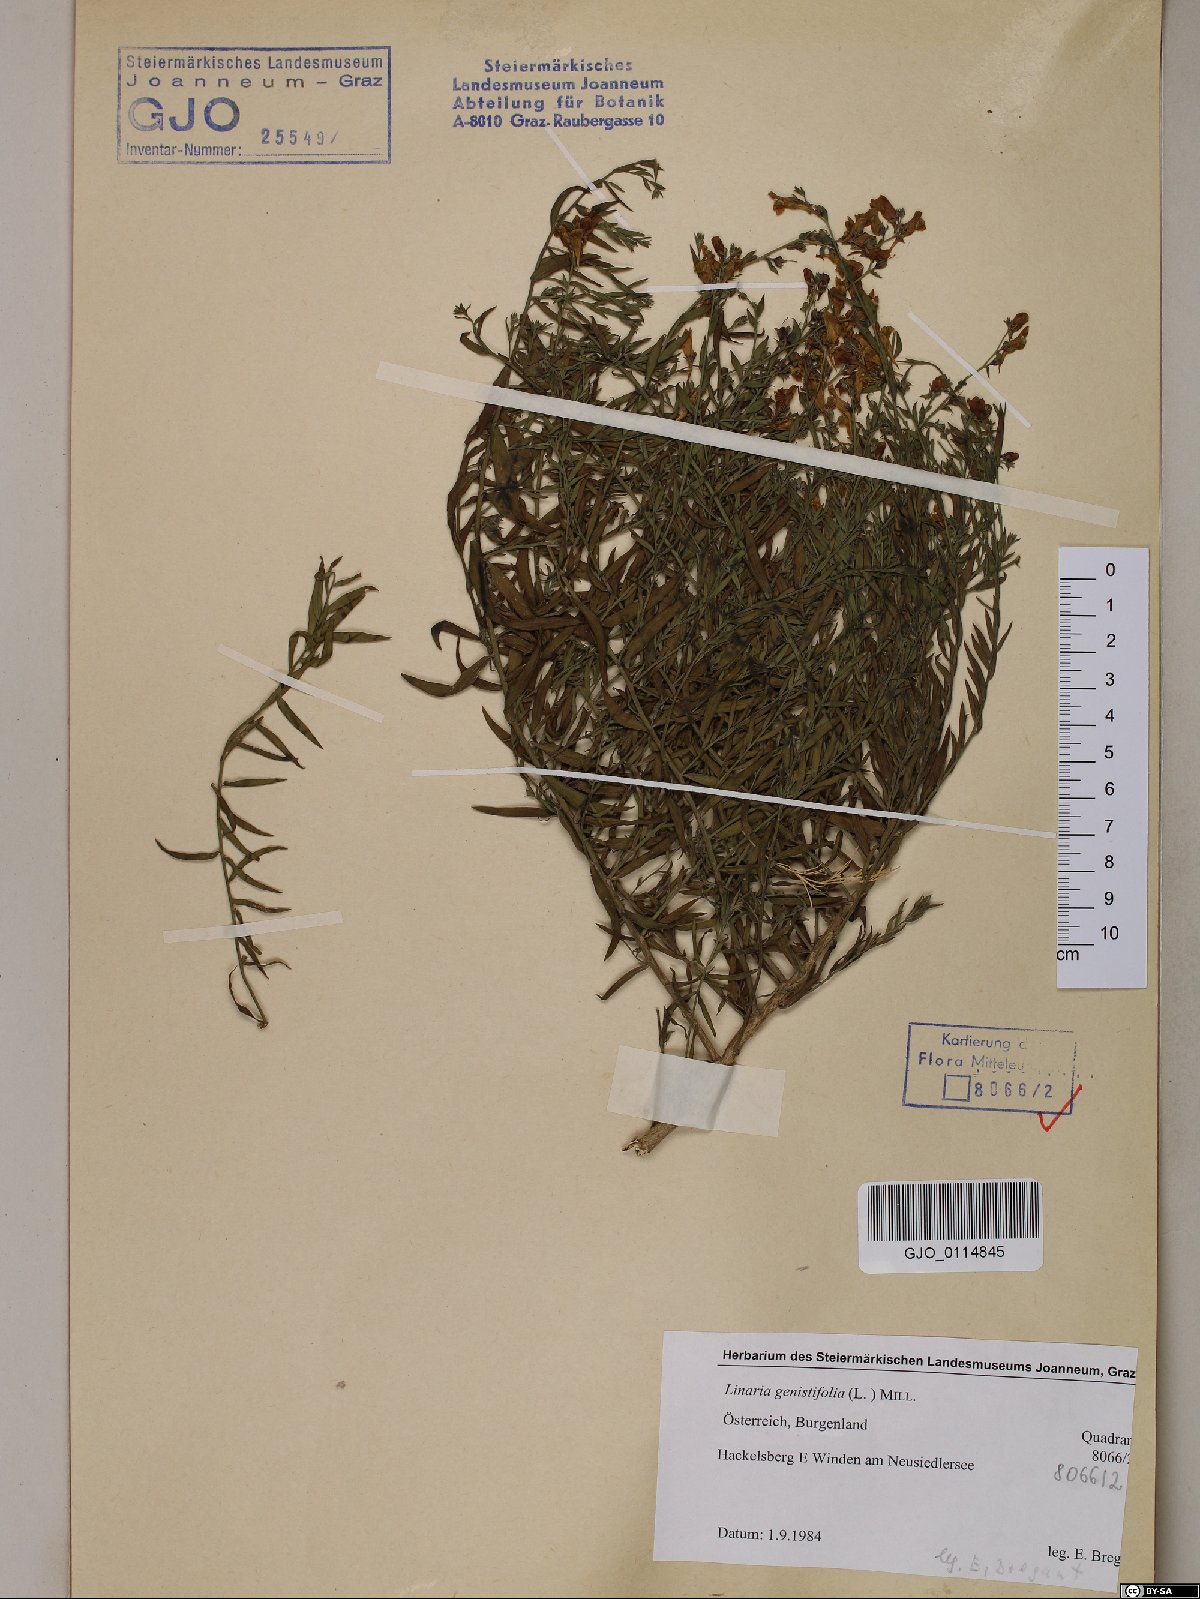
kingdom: Plantae
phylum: Tracheophyta
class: Magnoliopsida
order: Lamiales
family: Plantaginaceae
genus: Linaria
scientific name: Linaria genistifolia
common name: Broomleaf toadflax
